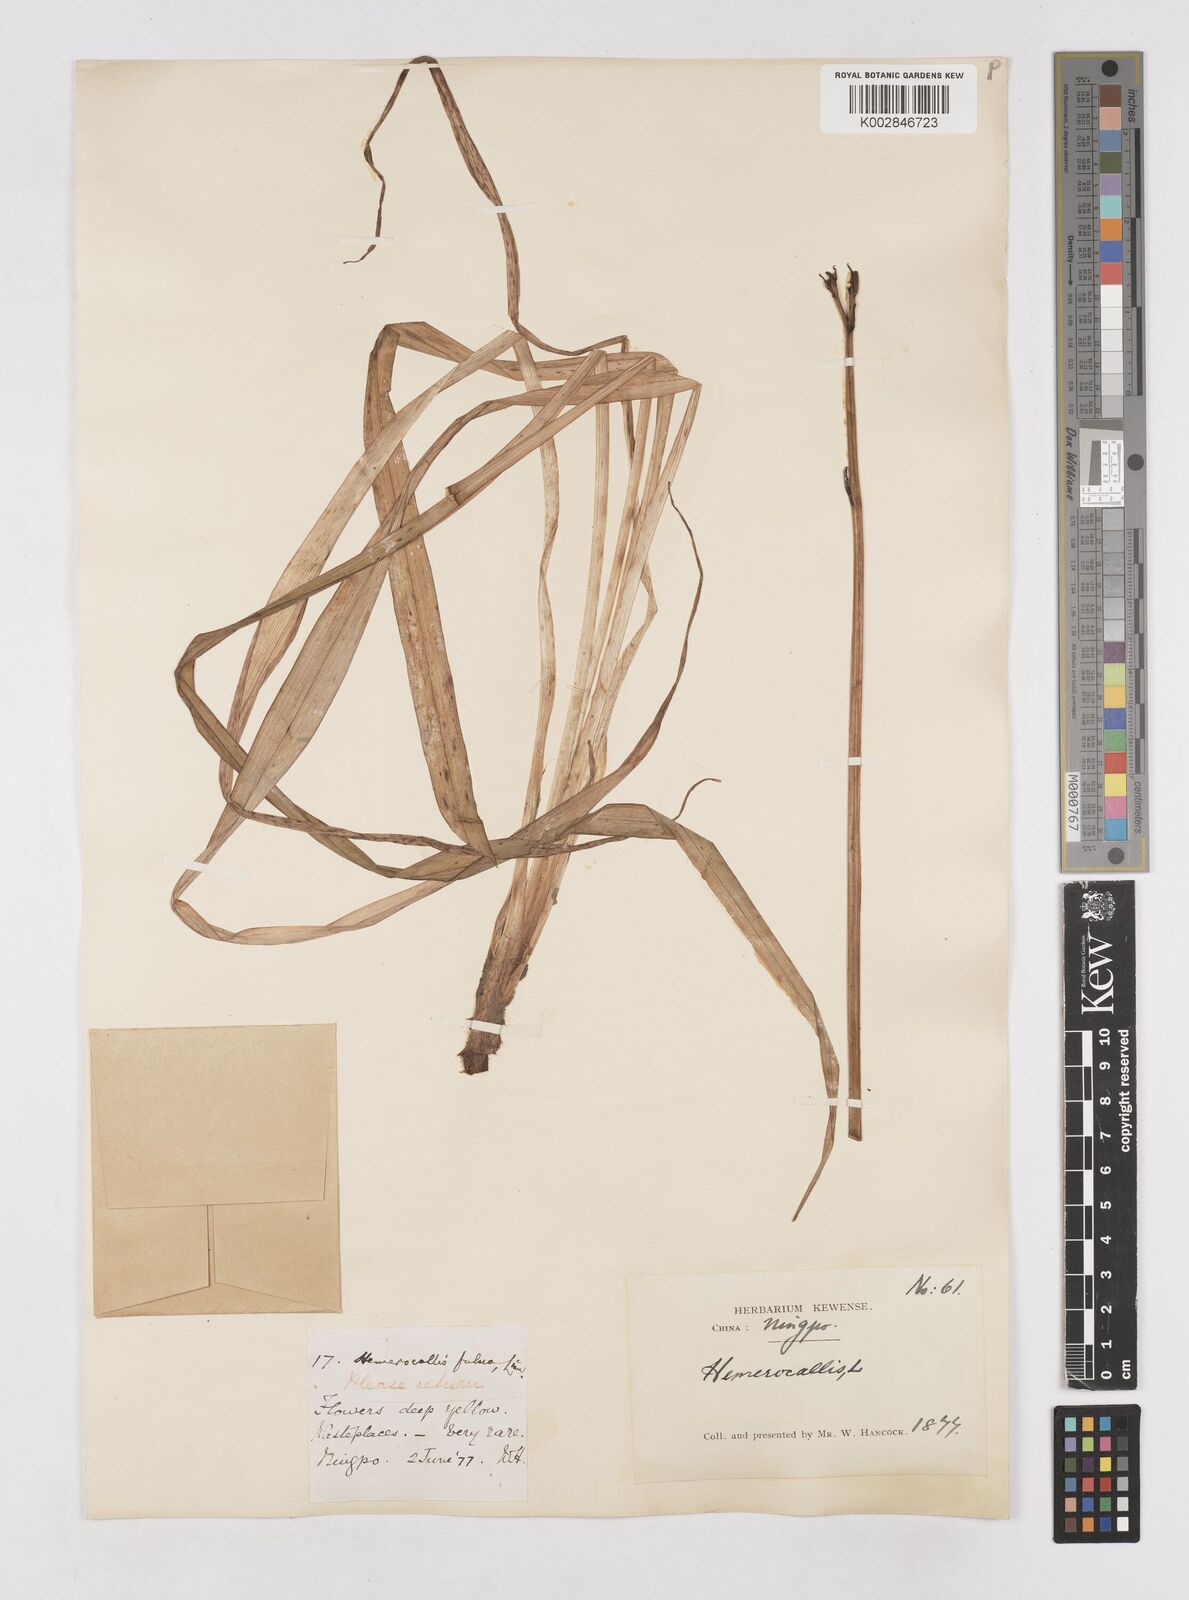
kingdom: Plantae
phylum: Tracheophyta
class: Liliopsida
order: Asparagales
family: Asphodelaceae
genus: Hemerocallis
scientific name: Hemerocallis
